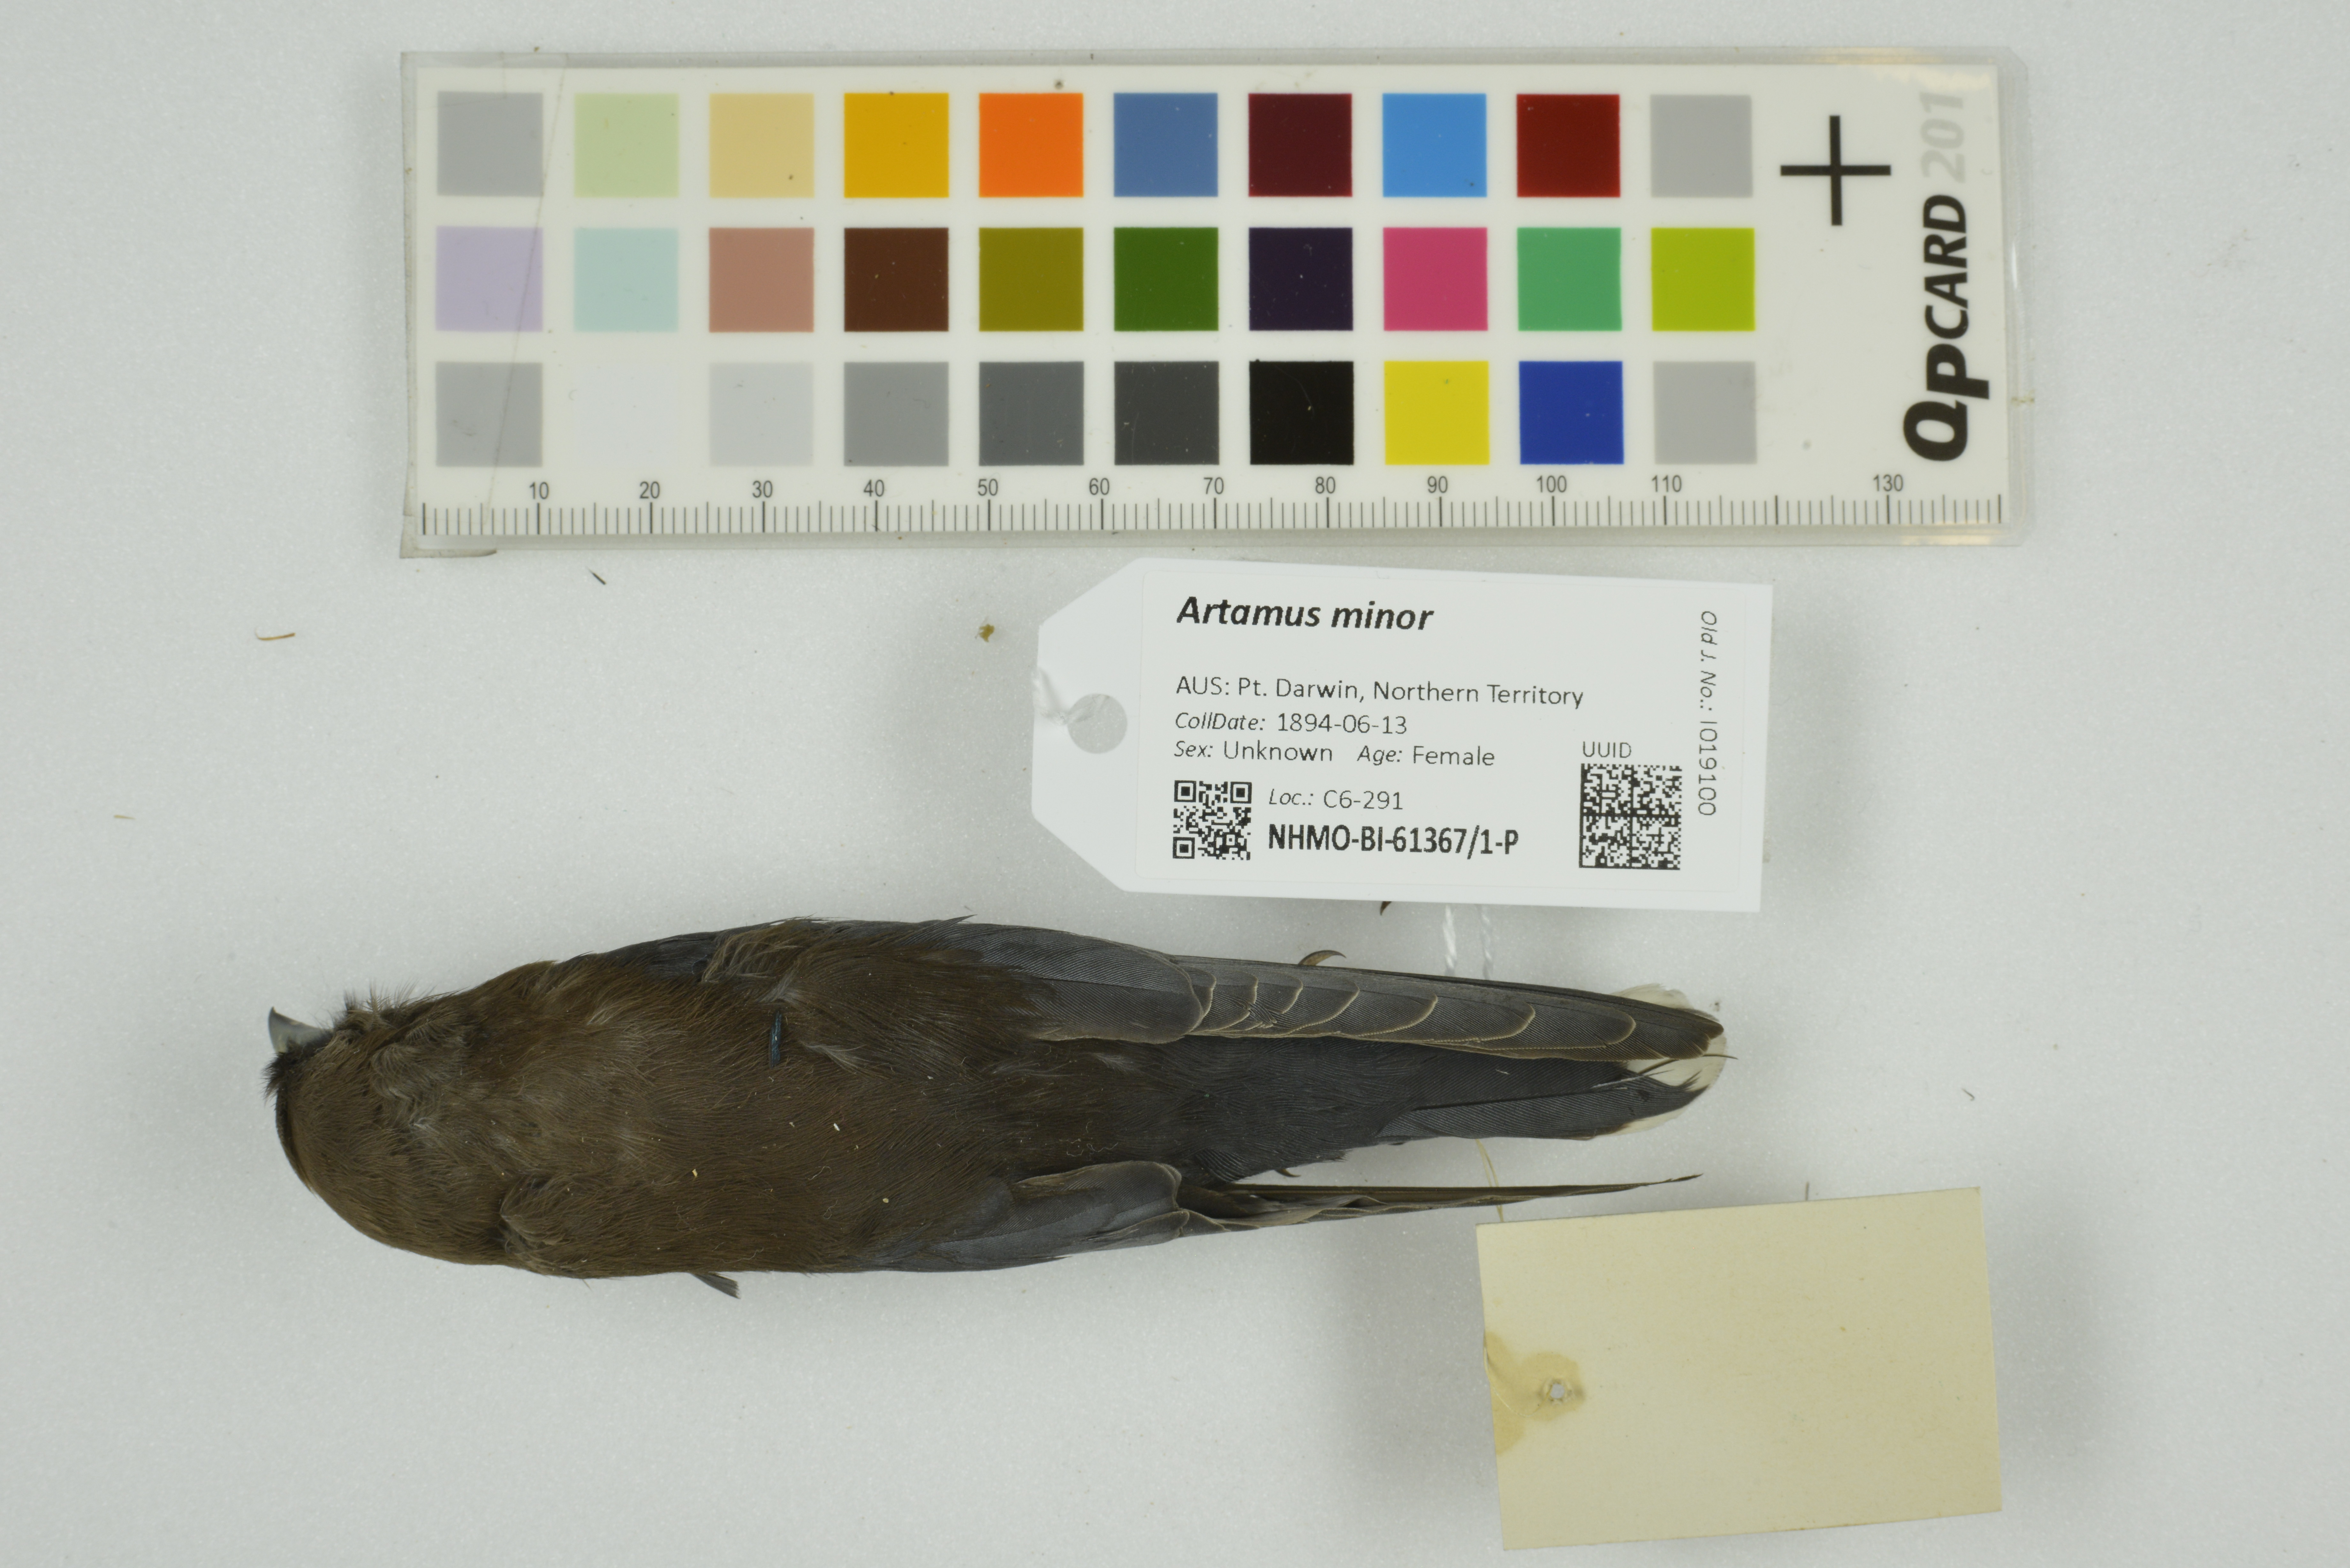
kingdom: Animalia
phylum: Chordata
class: Aves
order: Passeriformes
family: Artamidae
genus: Artamus
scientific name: Artamus minor
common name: Little woodswallow
